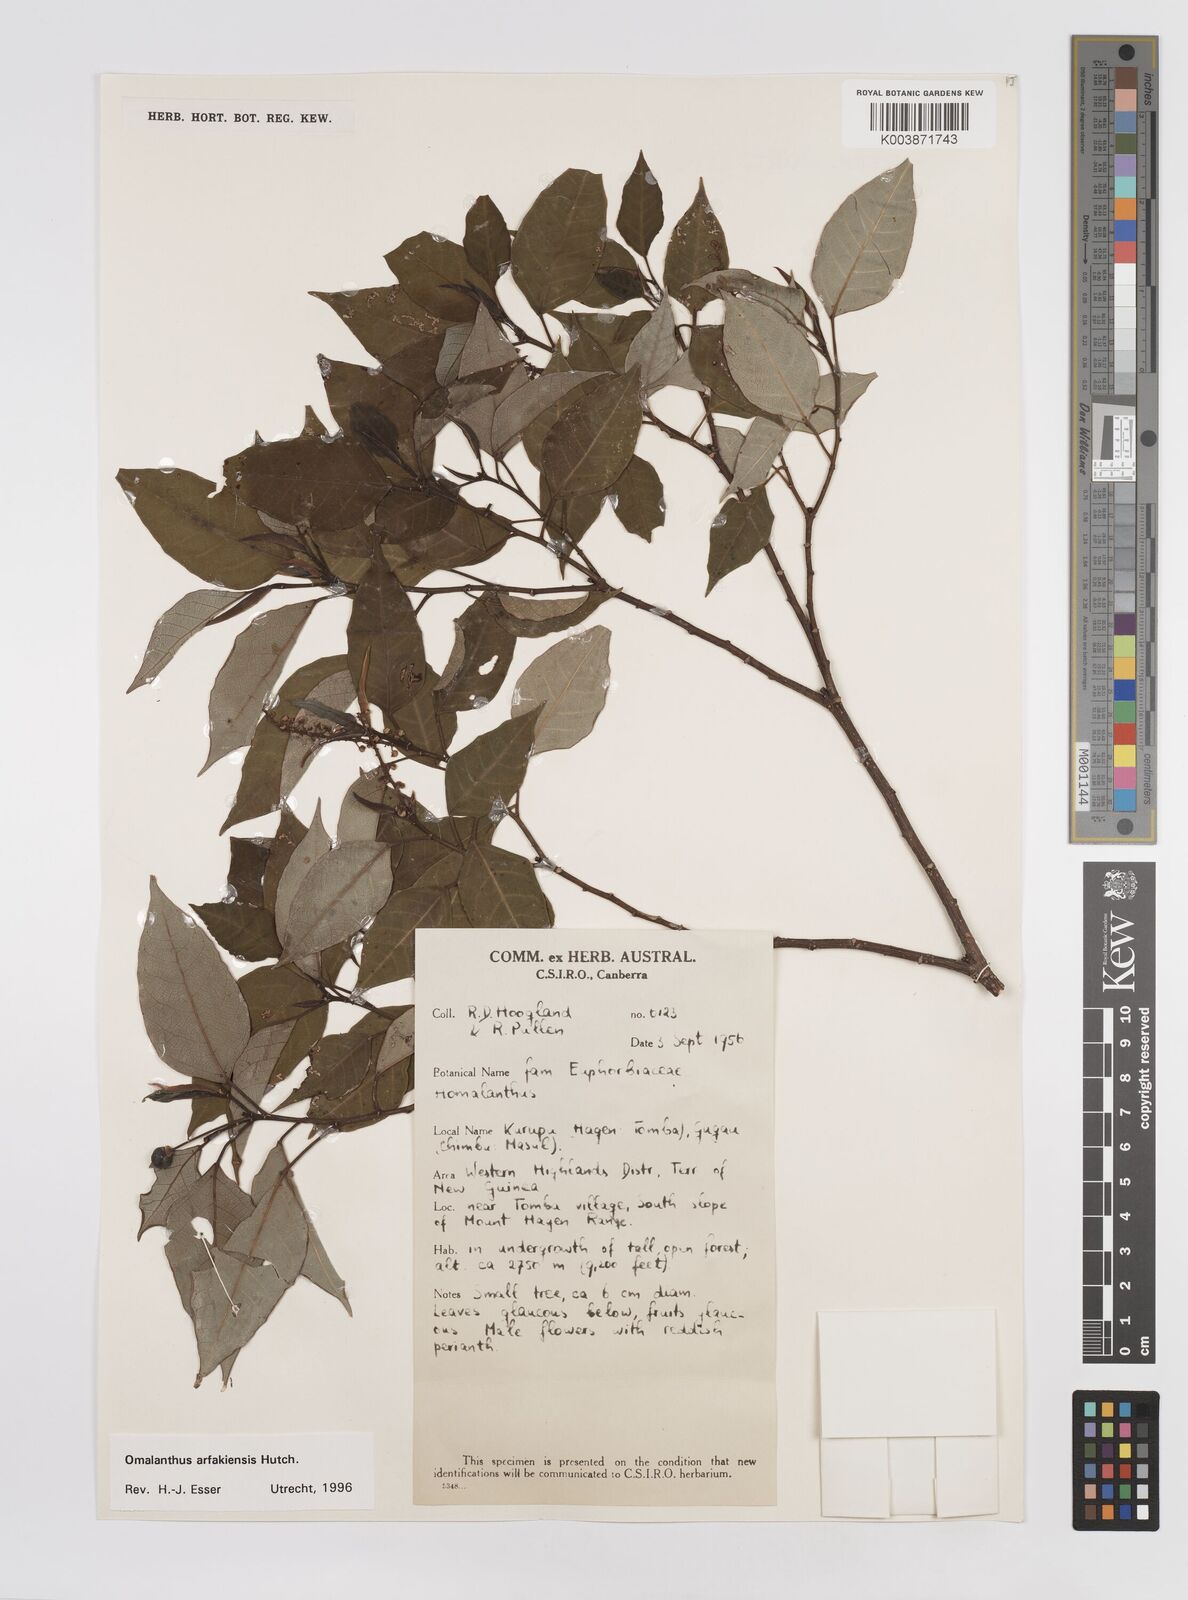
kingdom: Plantae
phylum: Tracheophyta
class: Magnoliopsida
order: Malpighiales
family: Euphorbiaceae
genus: Homalanthus
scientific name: Homalanthus arfakiensis
